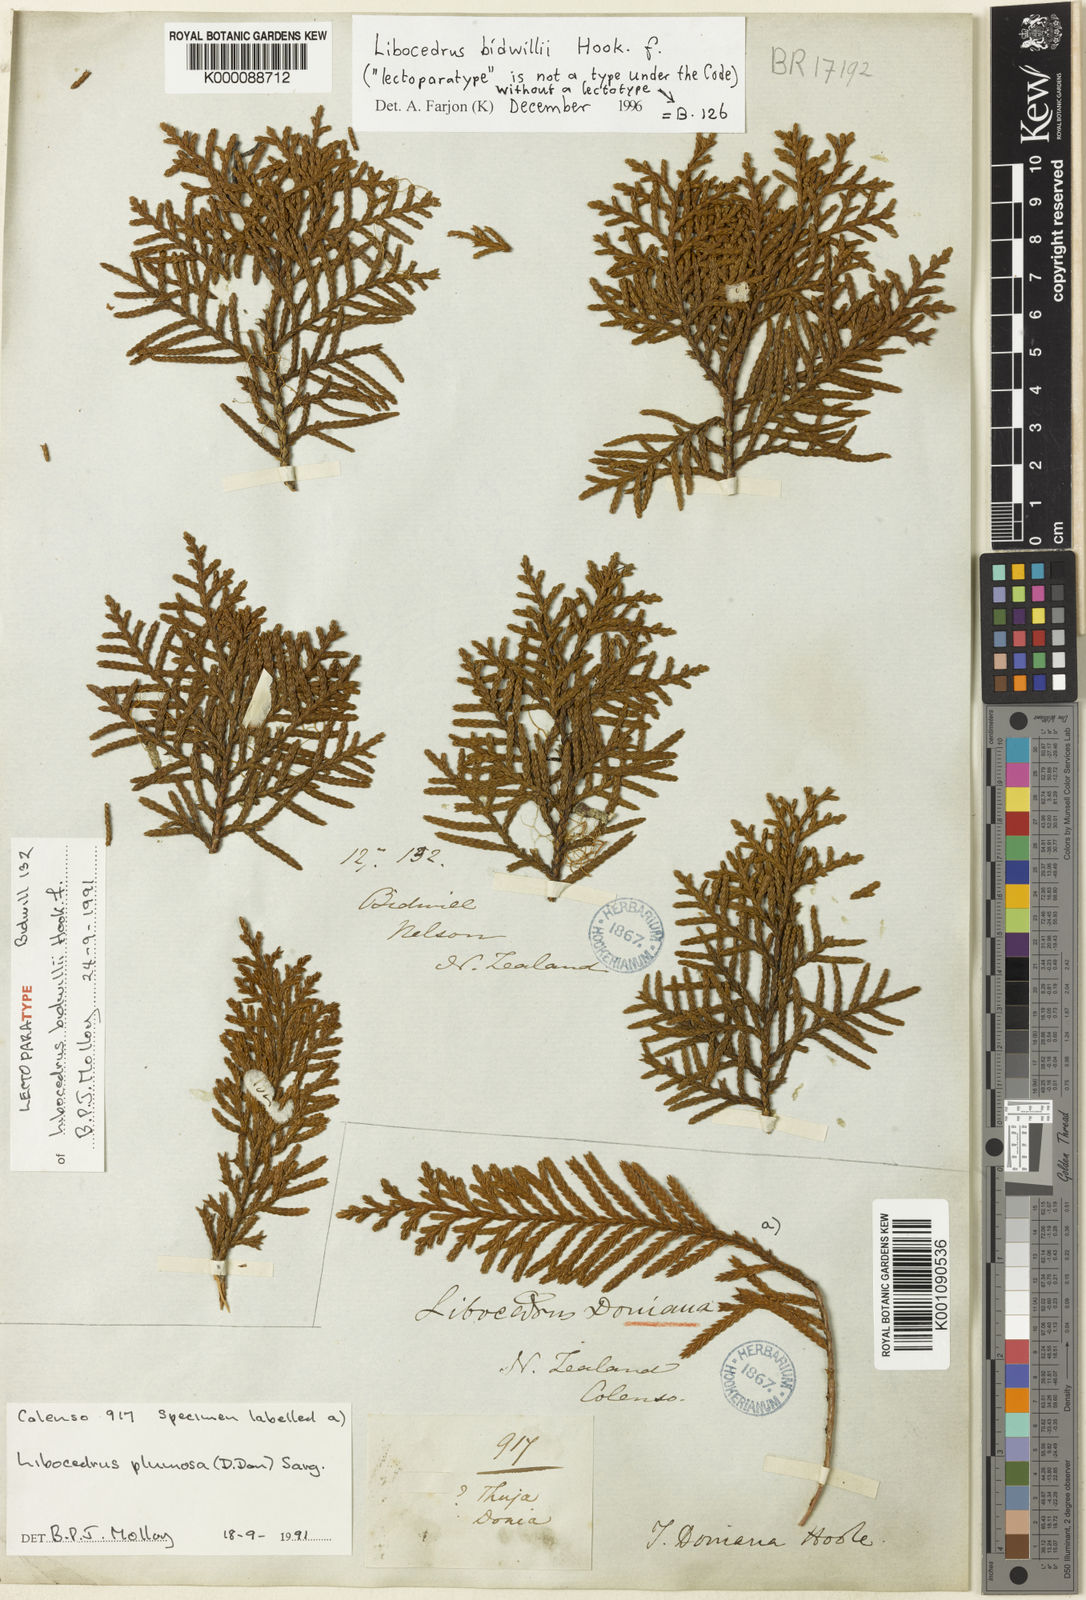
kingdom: Plantae
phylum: Tracheophyta
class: Pinopsida
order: Pinales
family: Cupressaceae
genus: Libocedrus
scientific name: Libocedrus bidwillii
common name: Cedar
